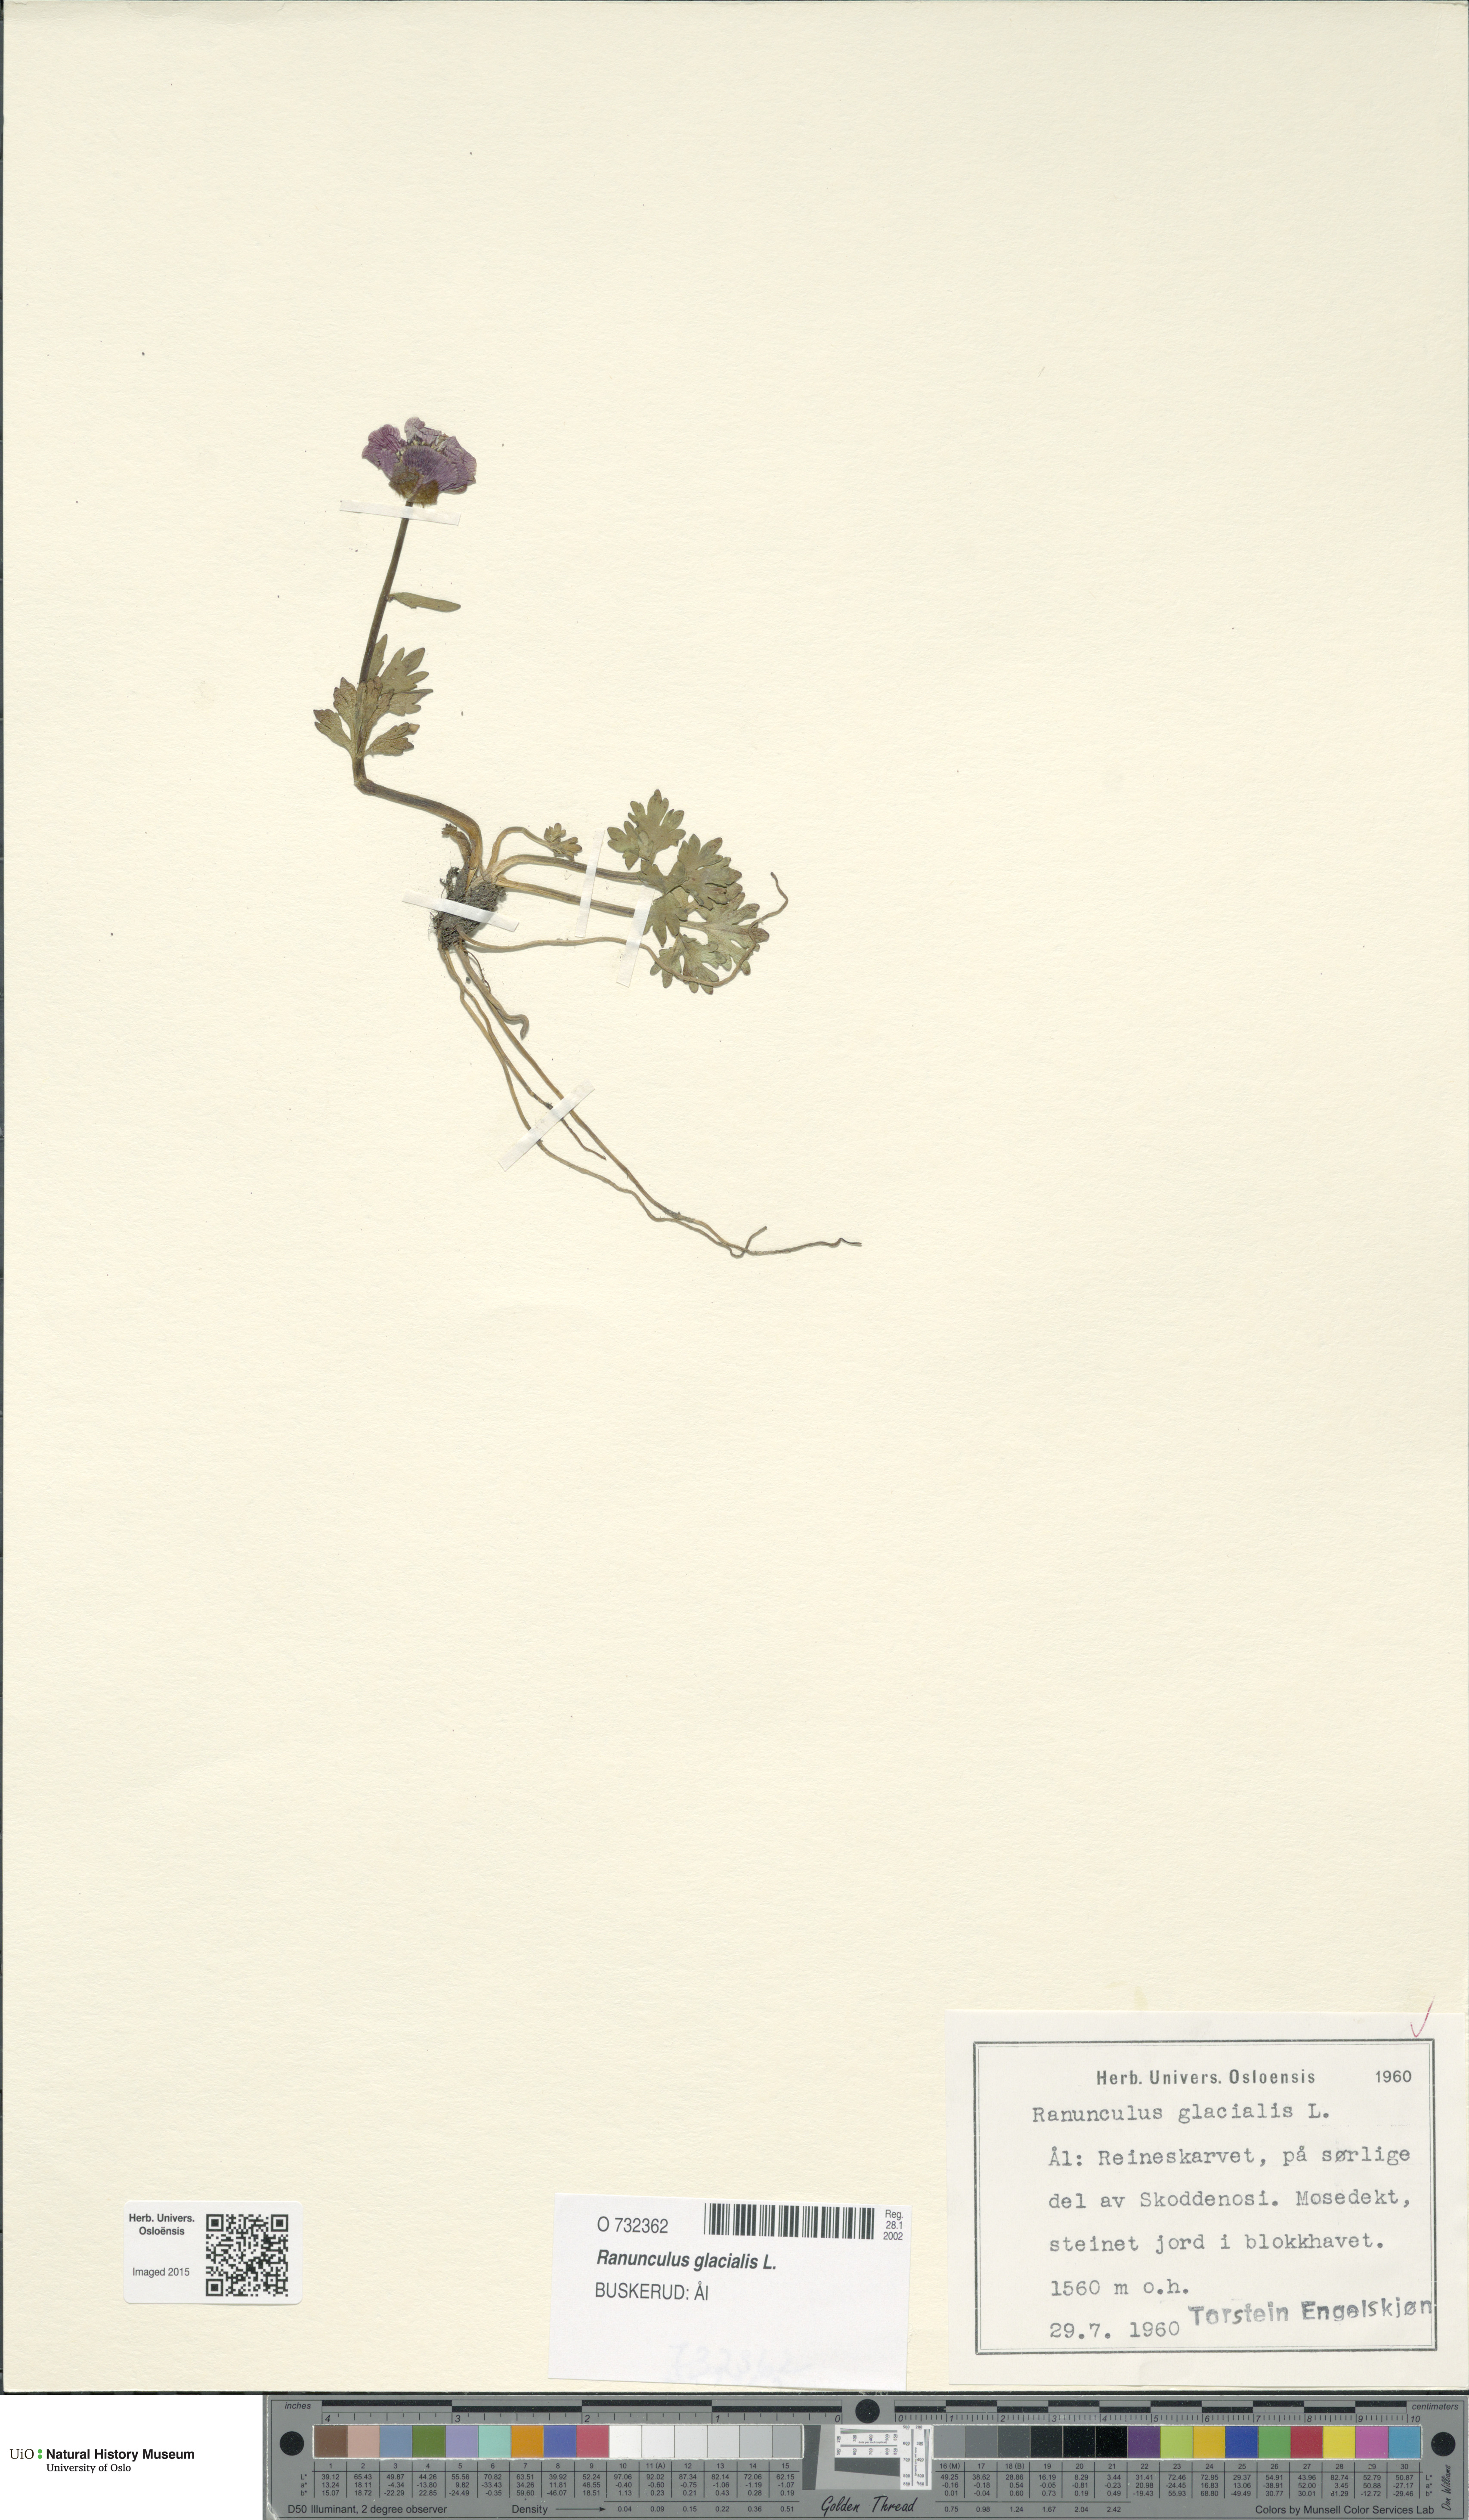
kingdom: Plantae
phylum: Tracheophyta
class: Magnoliopsida
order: Ranunculales
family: Ranunculaceae
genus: Ranunculus
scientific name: Ranunculus glacialis
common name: Glacier buttercup
